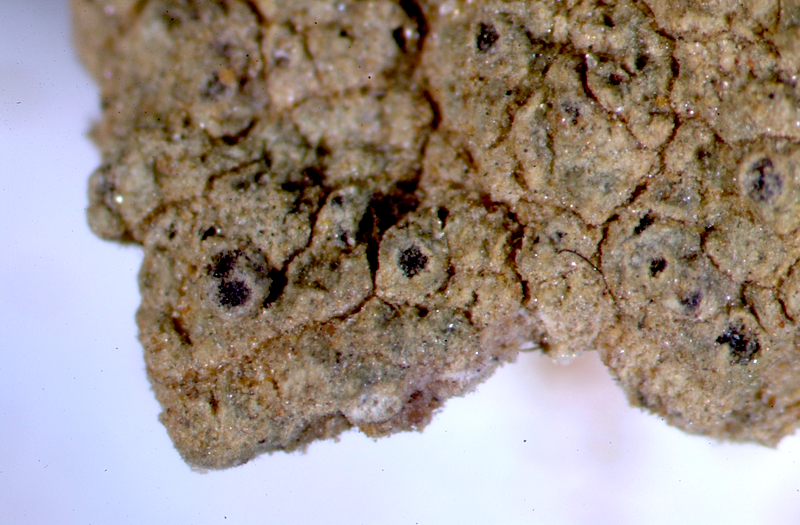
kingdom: Fungi
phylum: Ascomycota
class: Lecanoromycetes
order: Ostropales
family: Graphidaceae
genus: Diploschistes
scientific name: Diploschistes hensseniae
